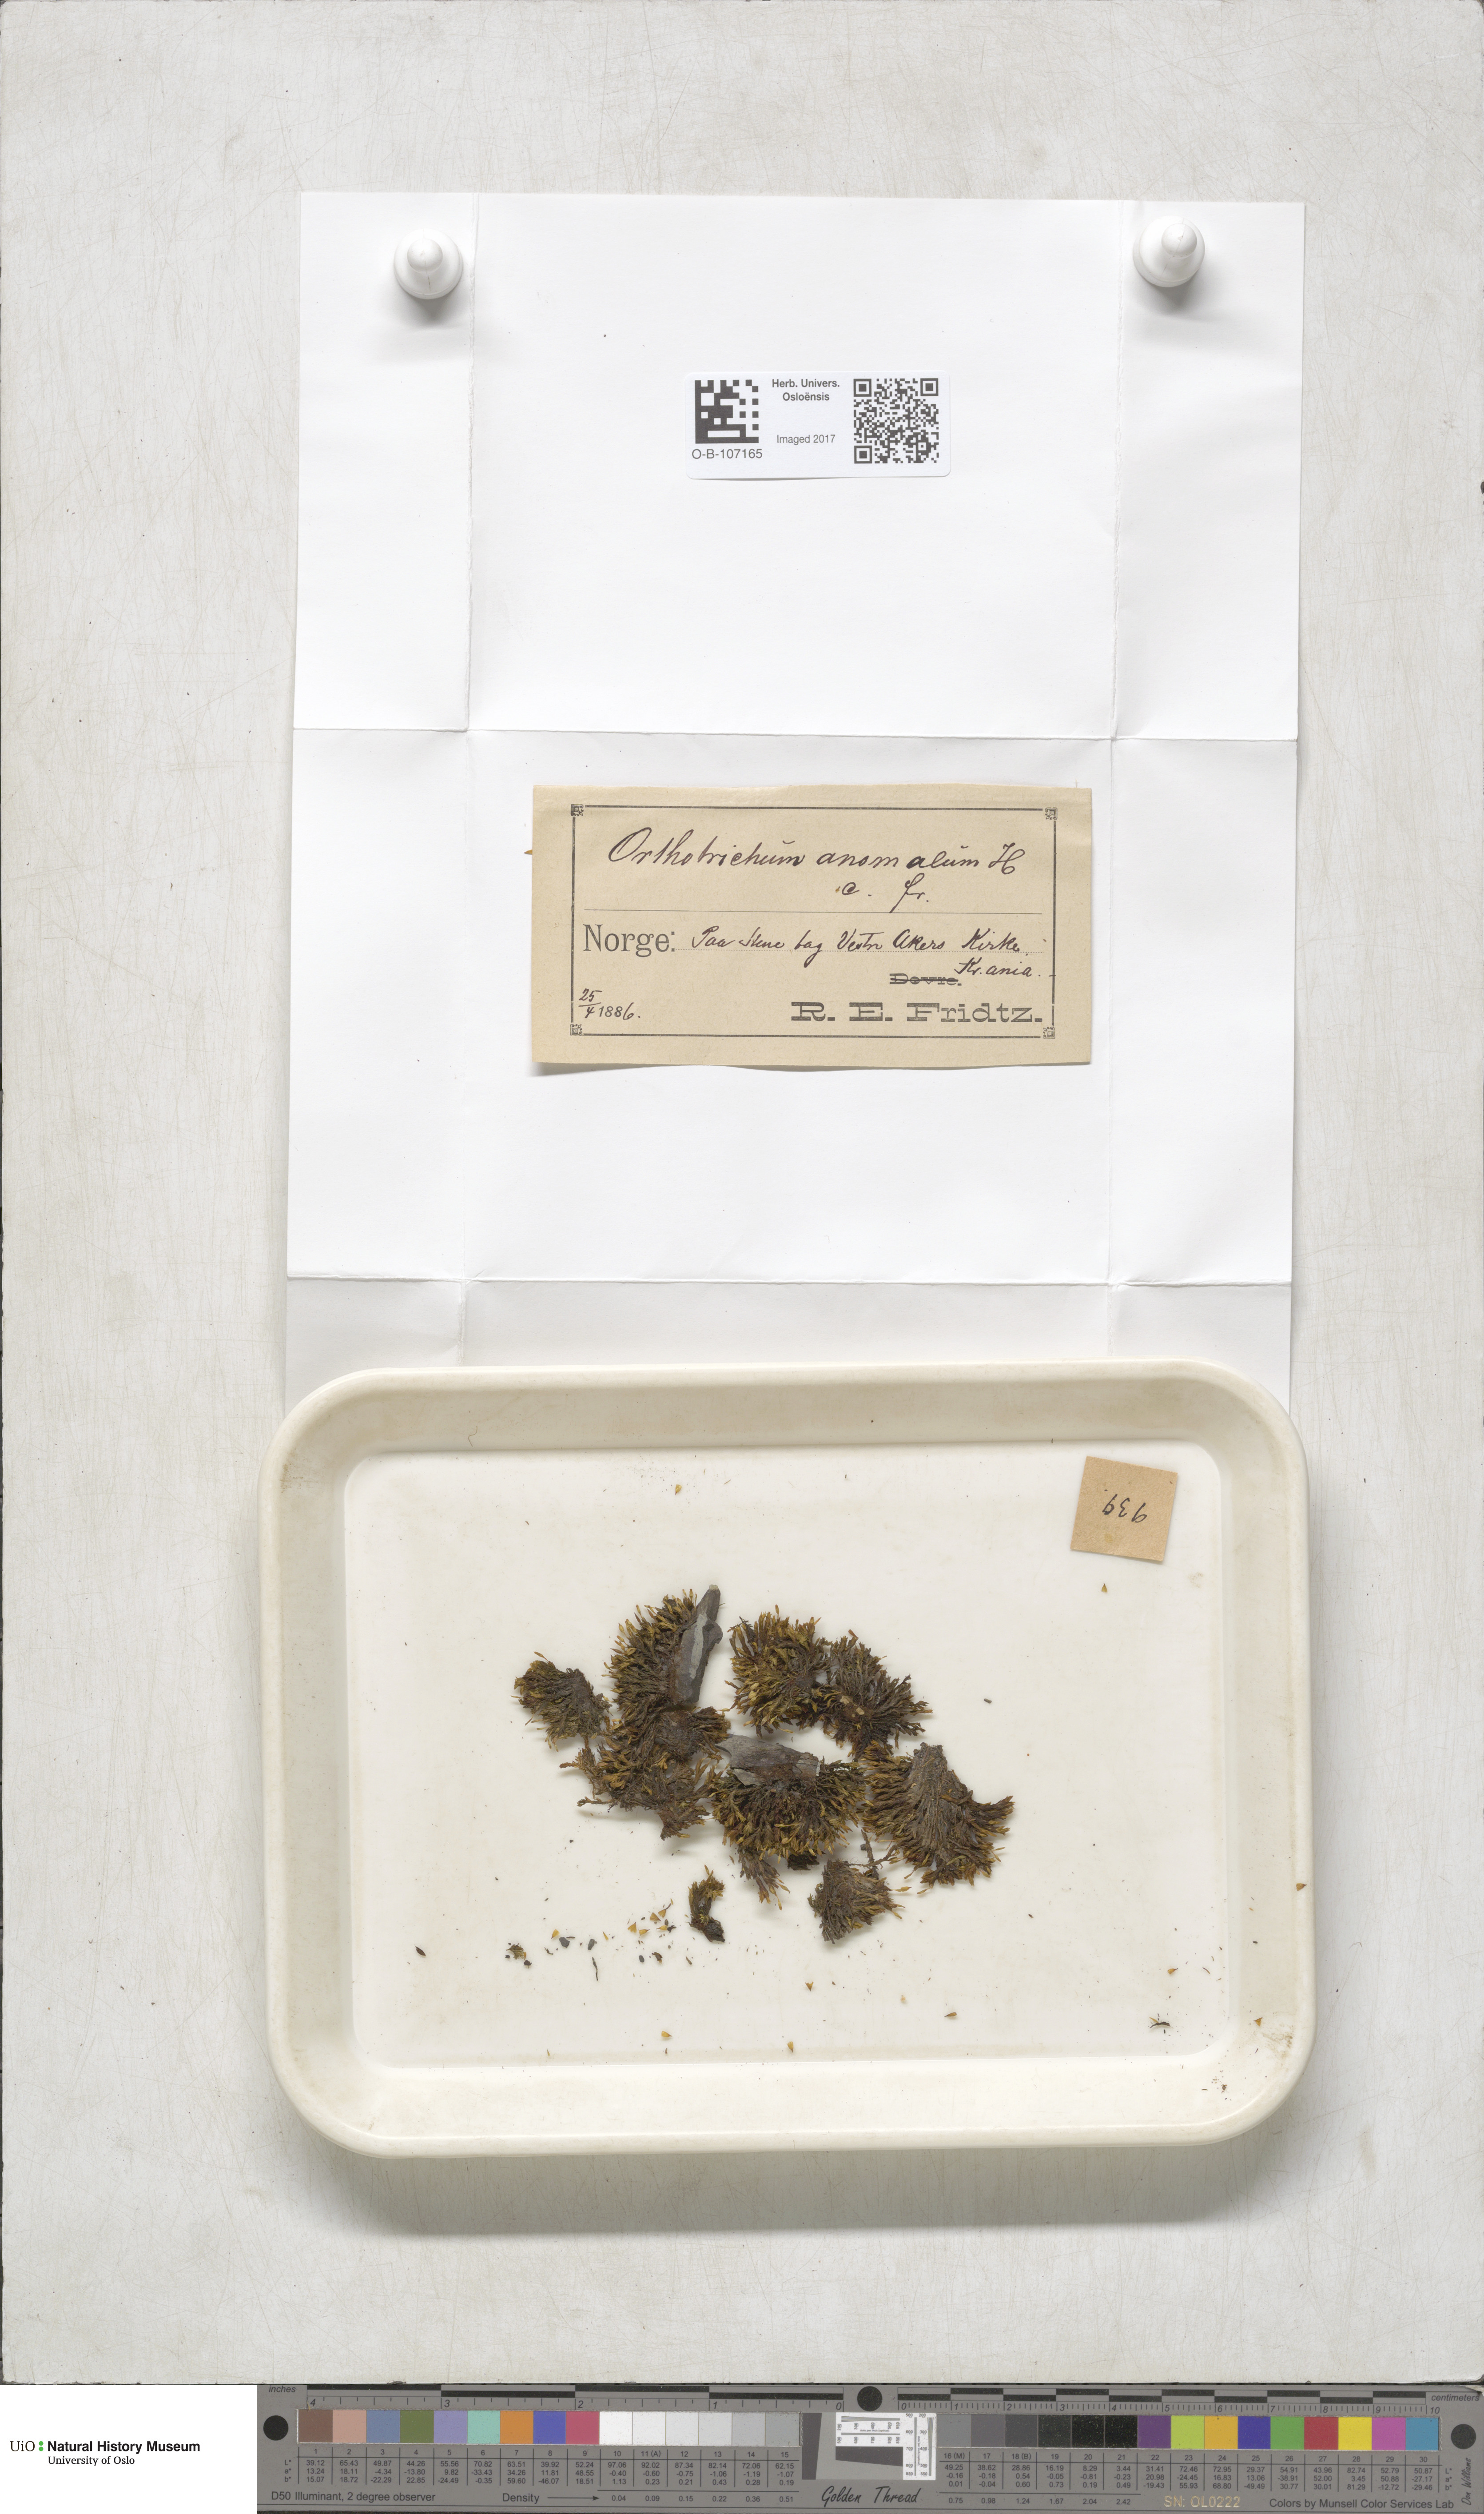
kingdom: Plantae
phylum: Bryophyta
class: Bryopsida
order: Orthotrichales
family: Orthotrichaceae
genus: Orthotrichum
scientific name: Orthotrichum anomalum
